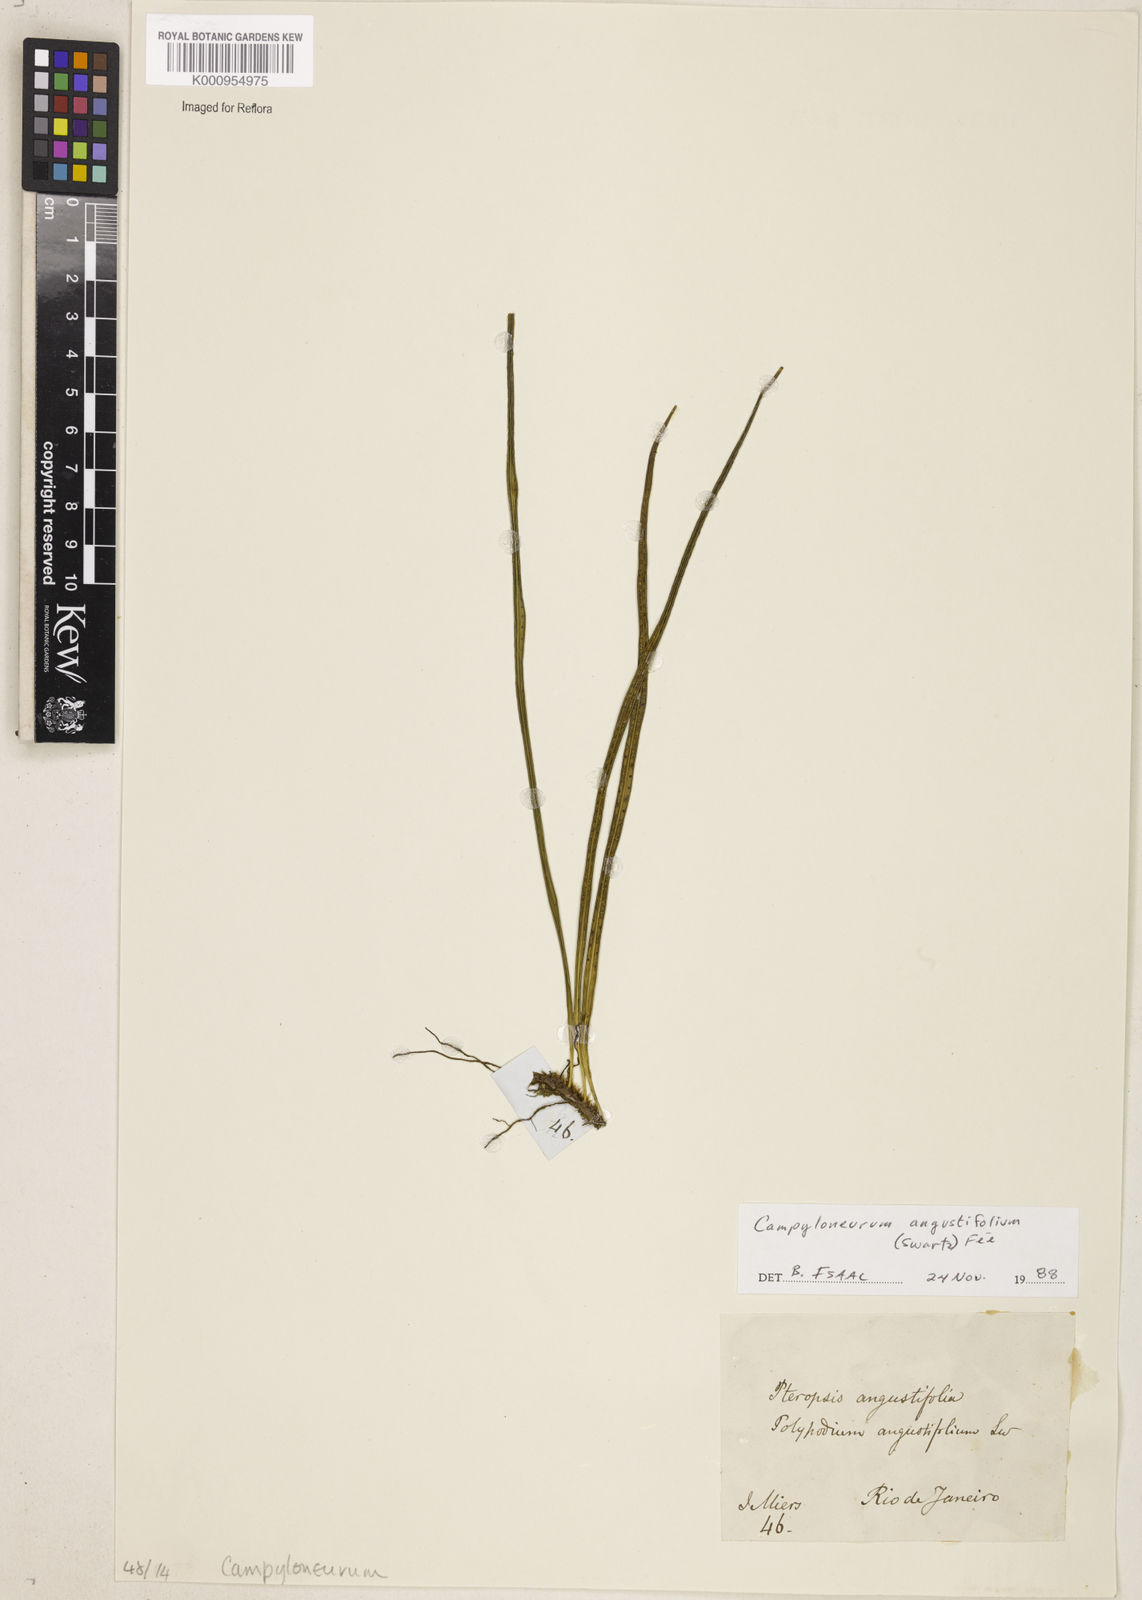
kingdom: Plantae
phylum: Tracheophyta
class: Polypodiopsida
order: Polypodiales
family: Polypodiaceae
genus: Campyloneurum
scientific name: Campyloneurum
